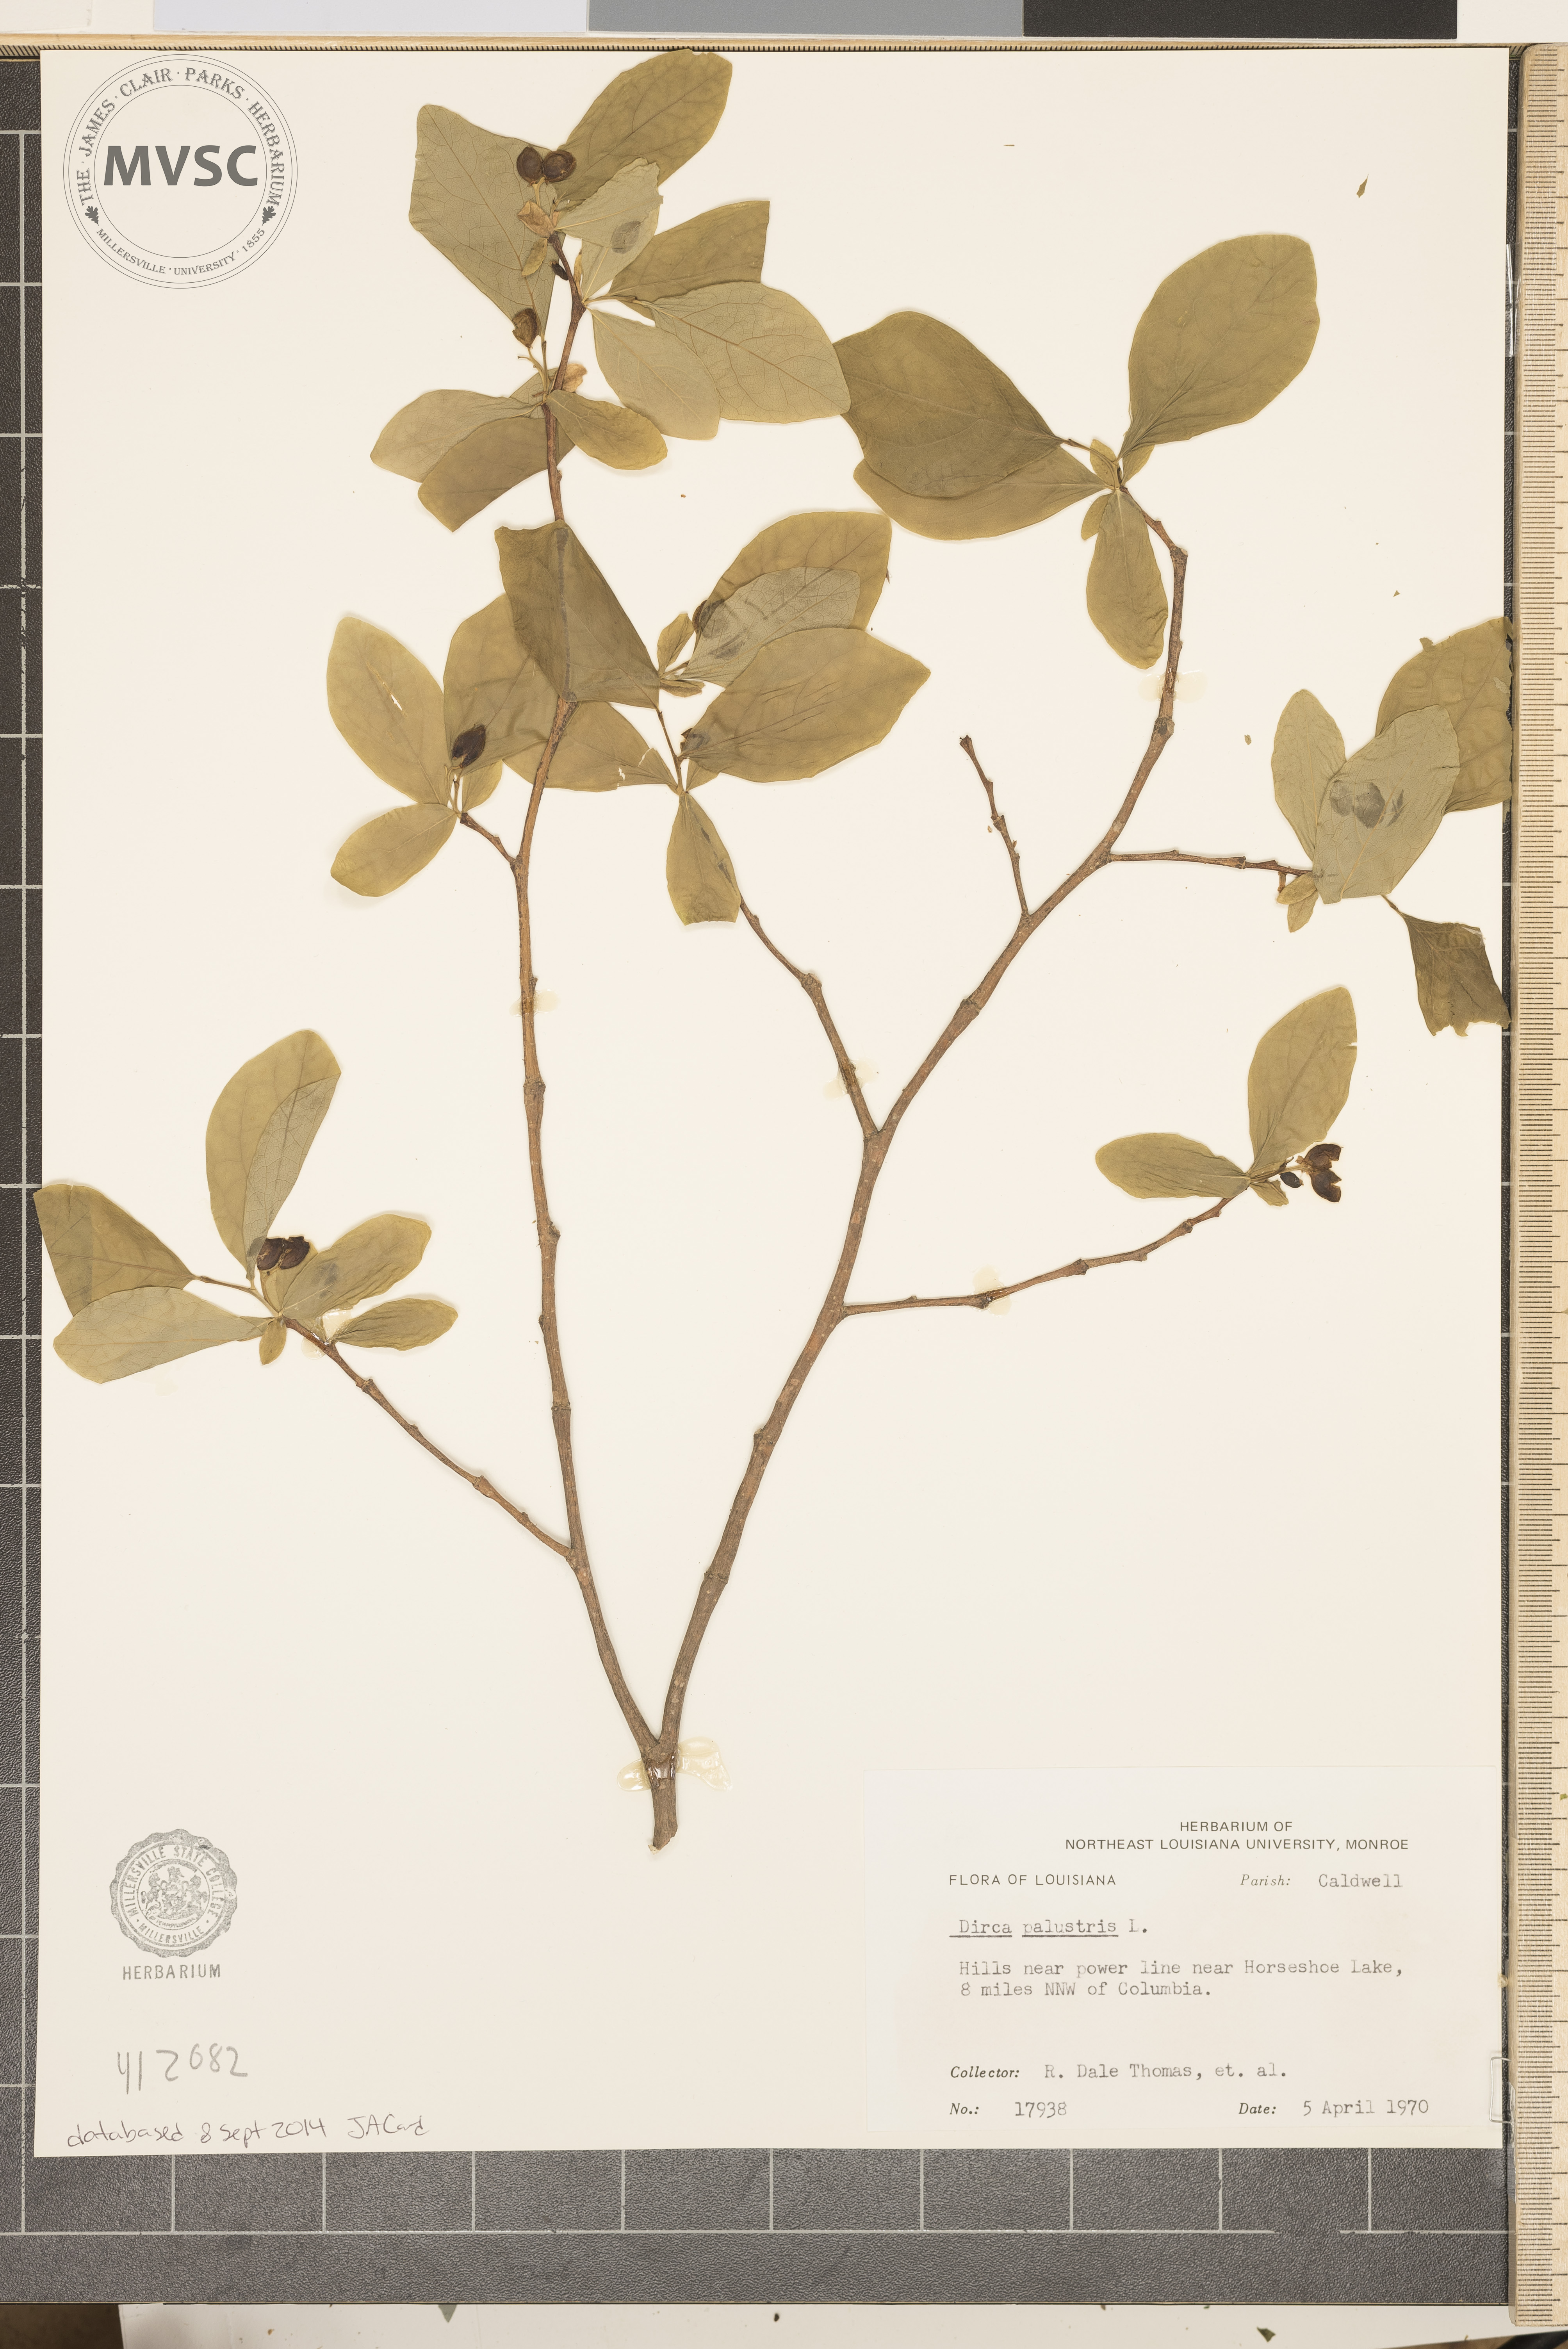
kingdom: Plantae
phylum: Tracheophyta
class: Magnoliopsida
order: Malvales
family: Thymelaeaceae
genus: Dirca
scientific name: Dirca palustris
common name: Leatherwood
